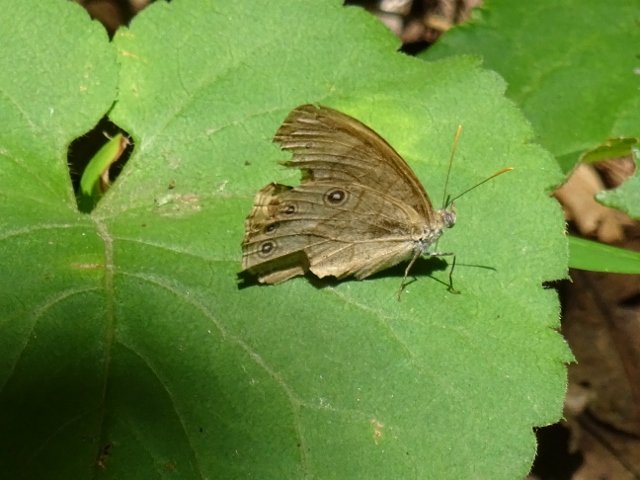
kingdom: Animalia
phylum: Arthropoda
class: Insecta
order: Lepidoptera
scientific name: Lepidoptera
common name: Butterflies
